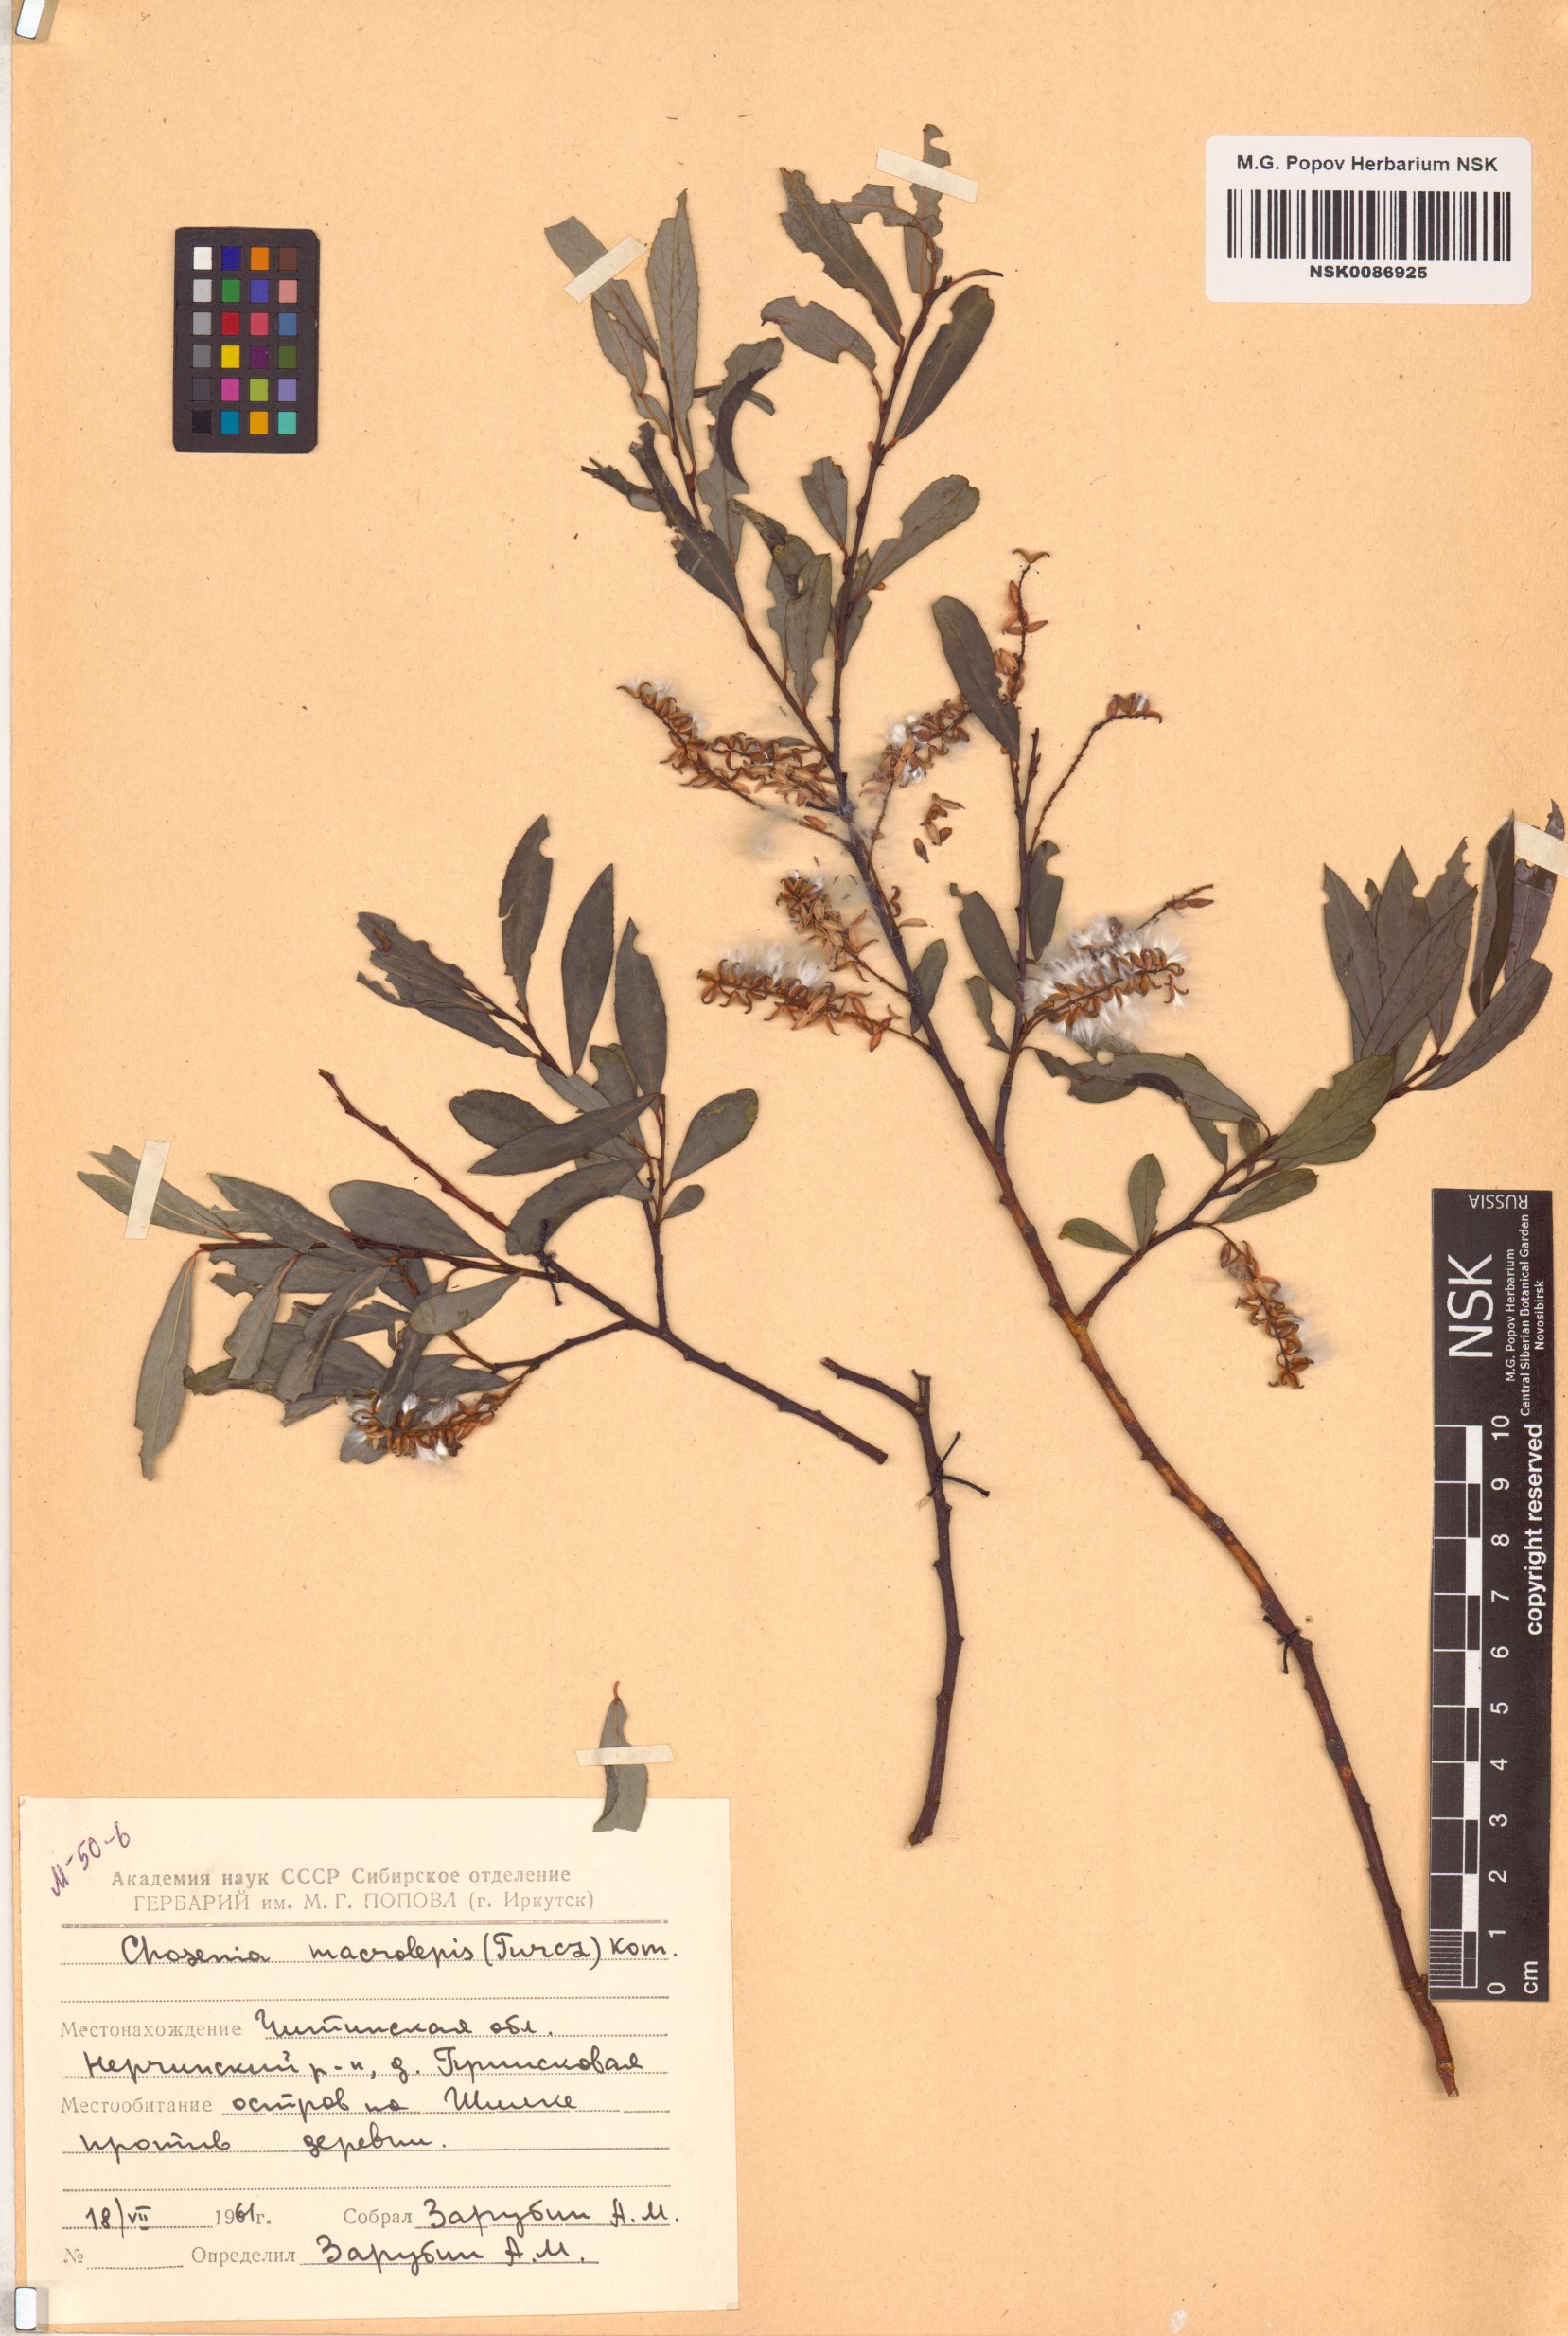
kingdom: Plantae
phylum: Tracheophyta
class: Magnoliopsida
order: Malpighiales
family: Salicaceae
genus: Chosenia
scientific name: Chosenia arbutifolia
